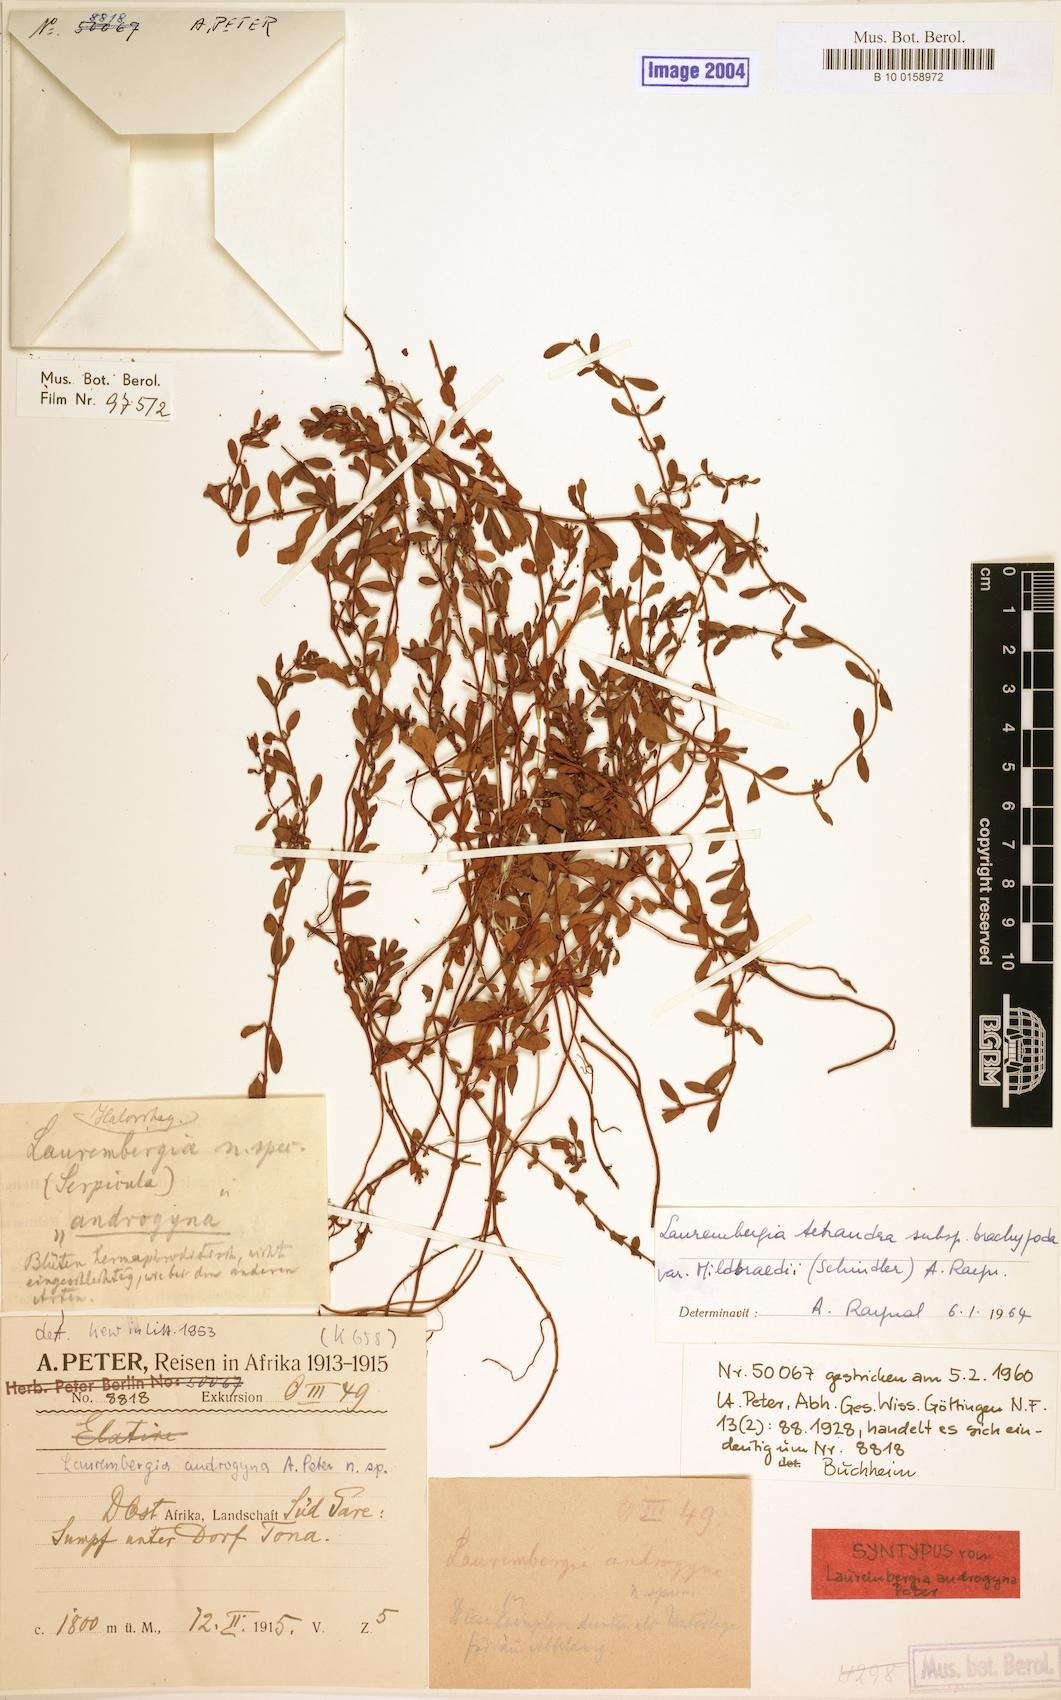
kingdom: Plantae
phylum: Tracheophyta
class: Magnoliopsida
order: Saxifragales
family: Haloragaceae
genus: Laurembergia
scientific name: Laurembergia repens
